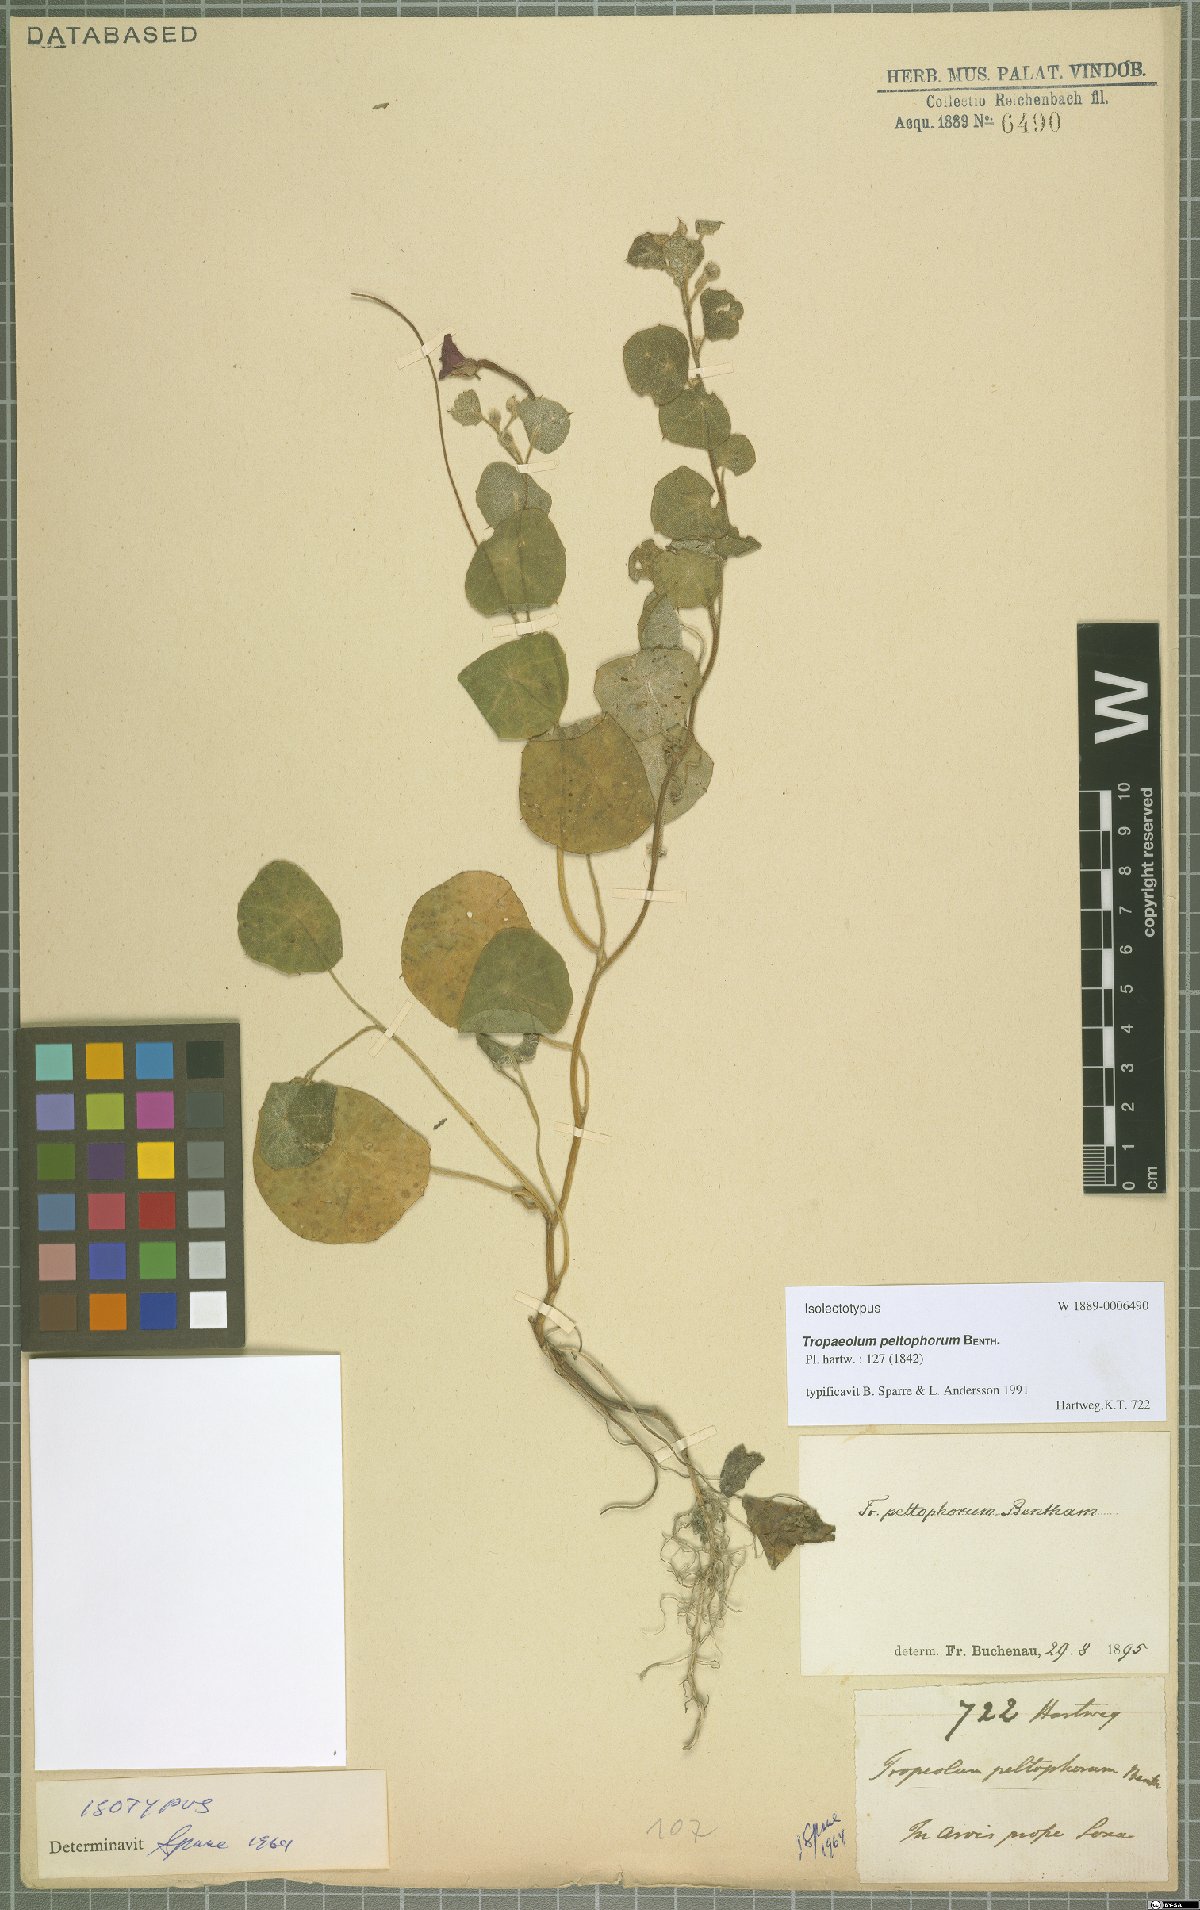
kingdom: Plantae
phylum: Tracheophyta
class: Magnoliopsida
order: Brassicales
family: Tropaeolaceae
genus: Tropaeolum
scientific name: Tropaeolum peltophorum
